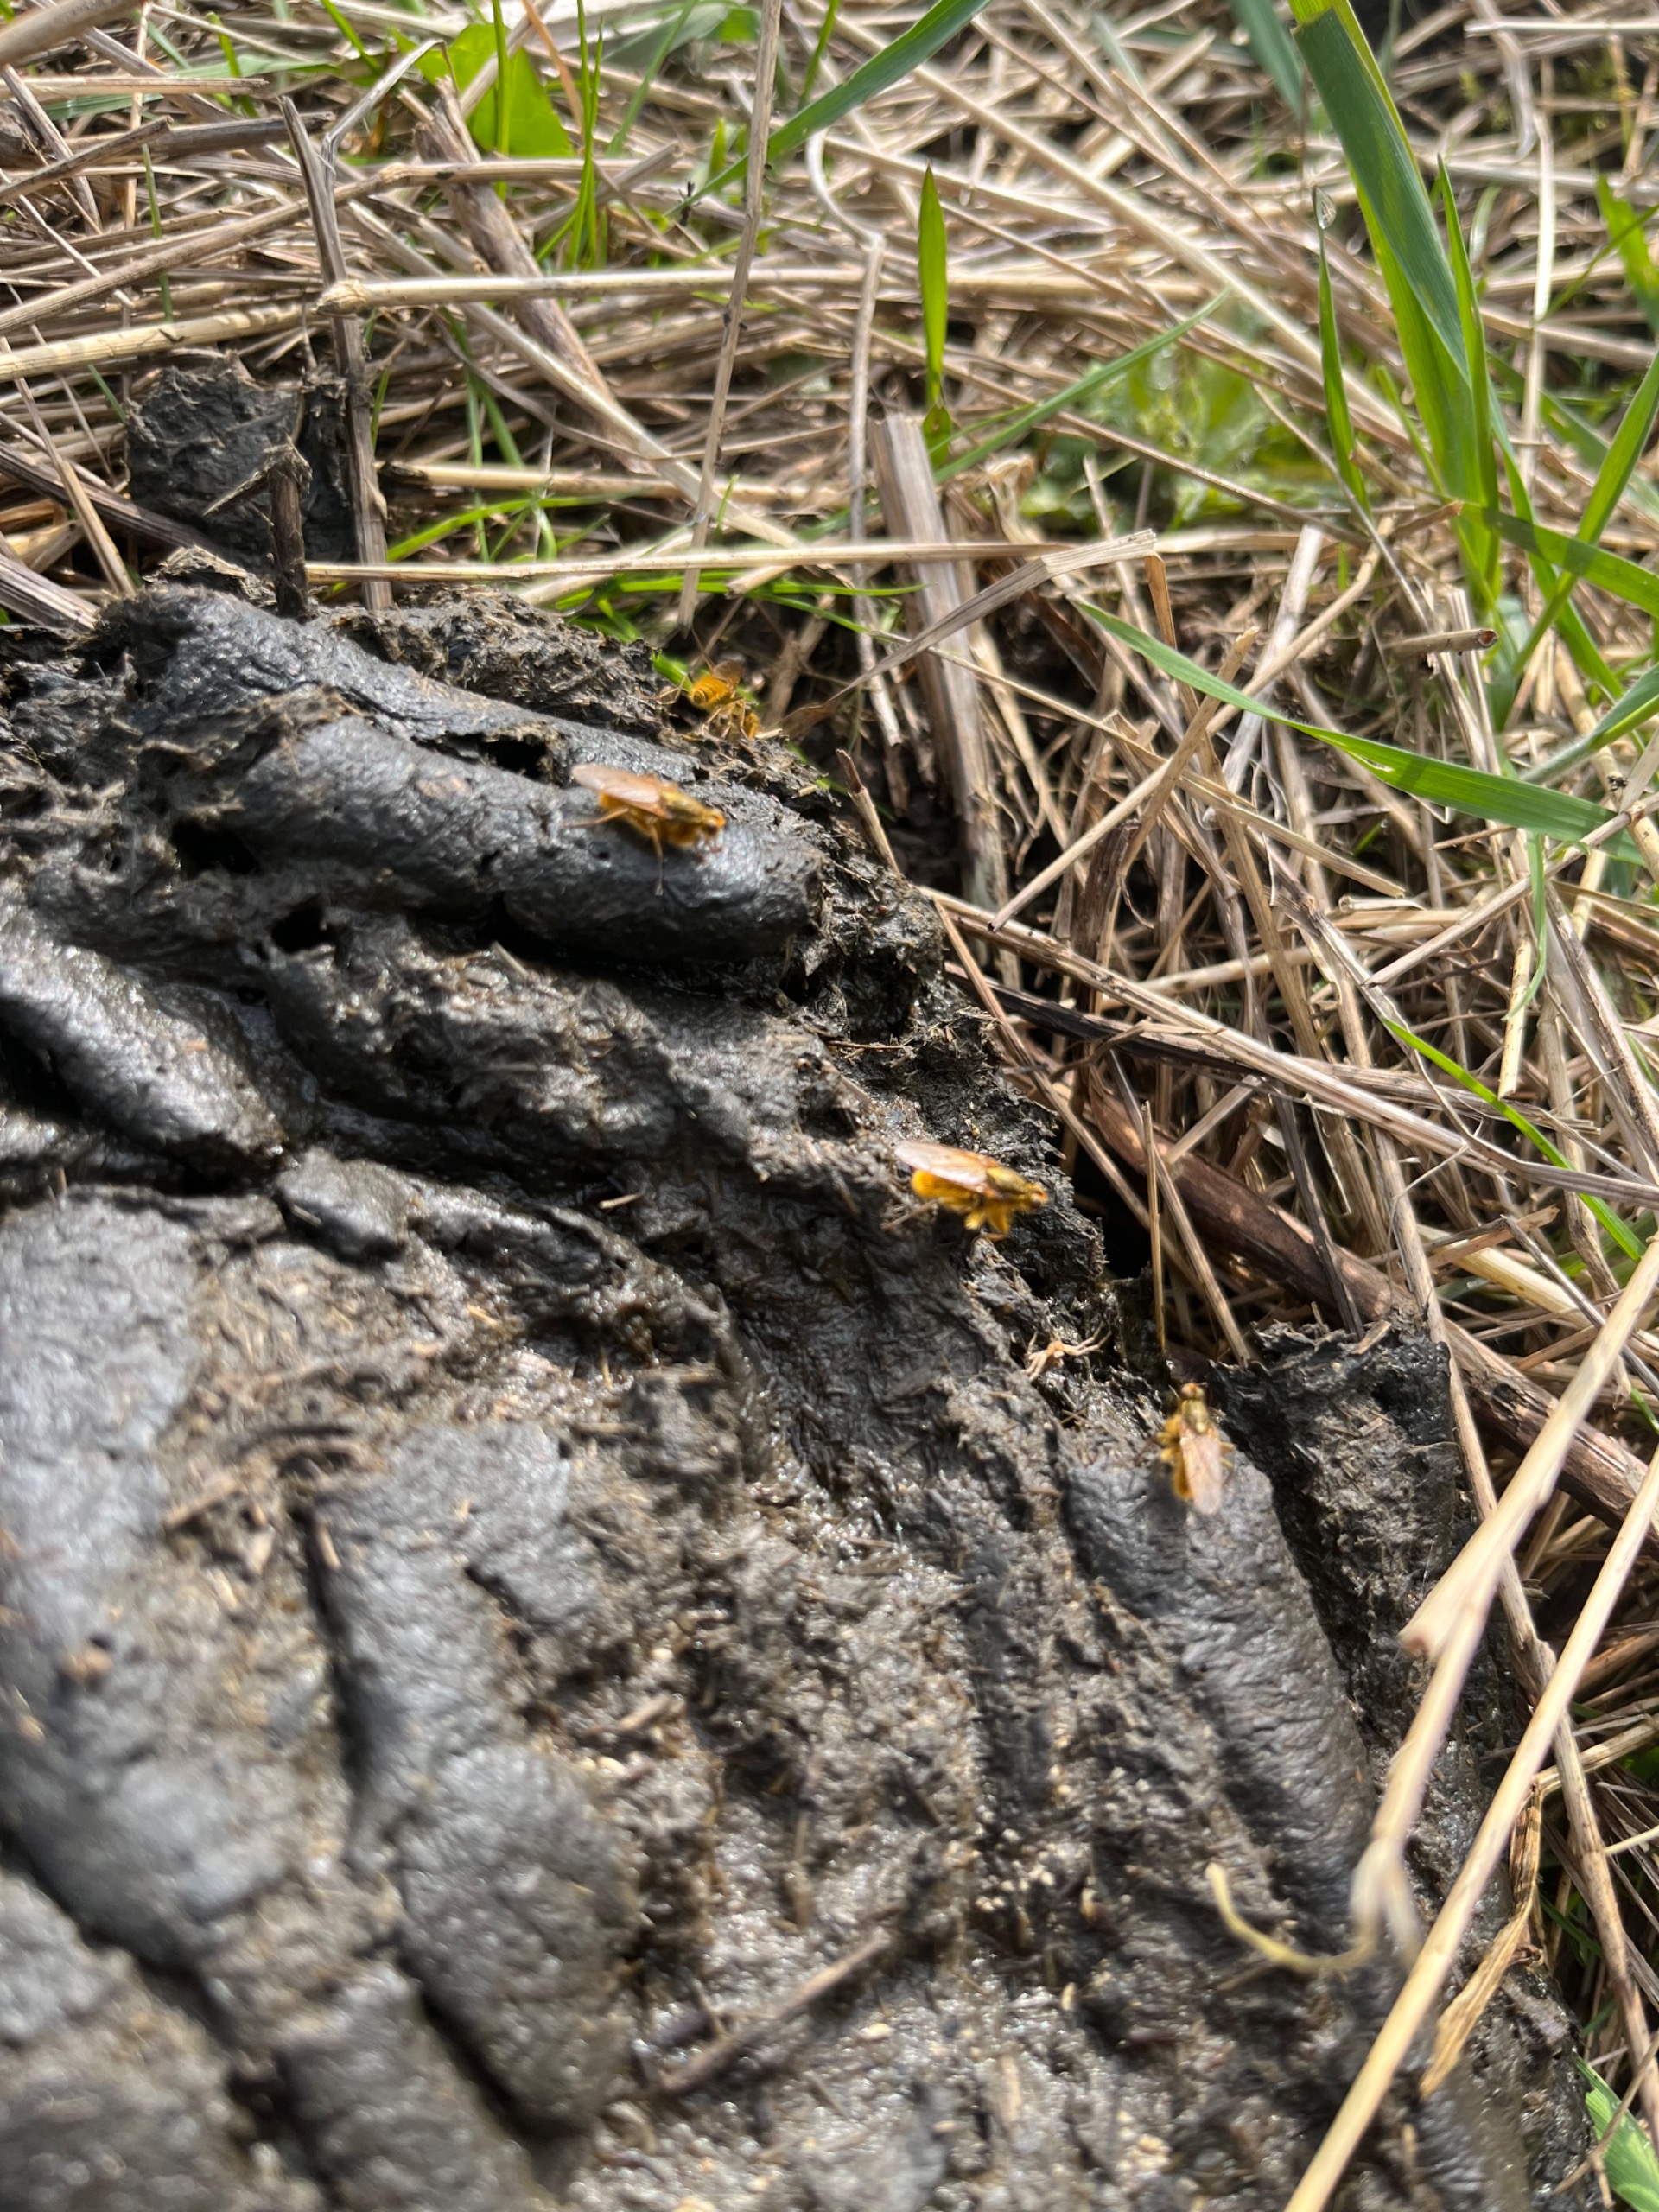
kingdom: Animalia
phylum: Arthropoda
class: Insecta
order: Diptera
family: Scathophagidae
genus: Scathophaga
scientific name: Scathophaga stercoraria
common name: Almindelig gødningsflue
